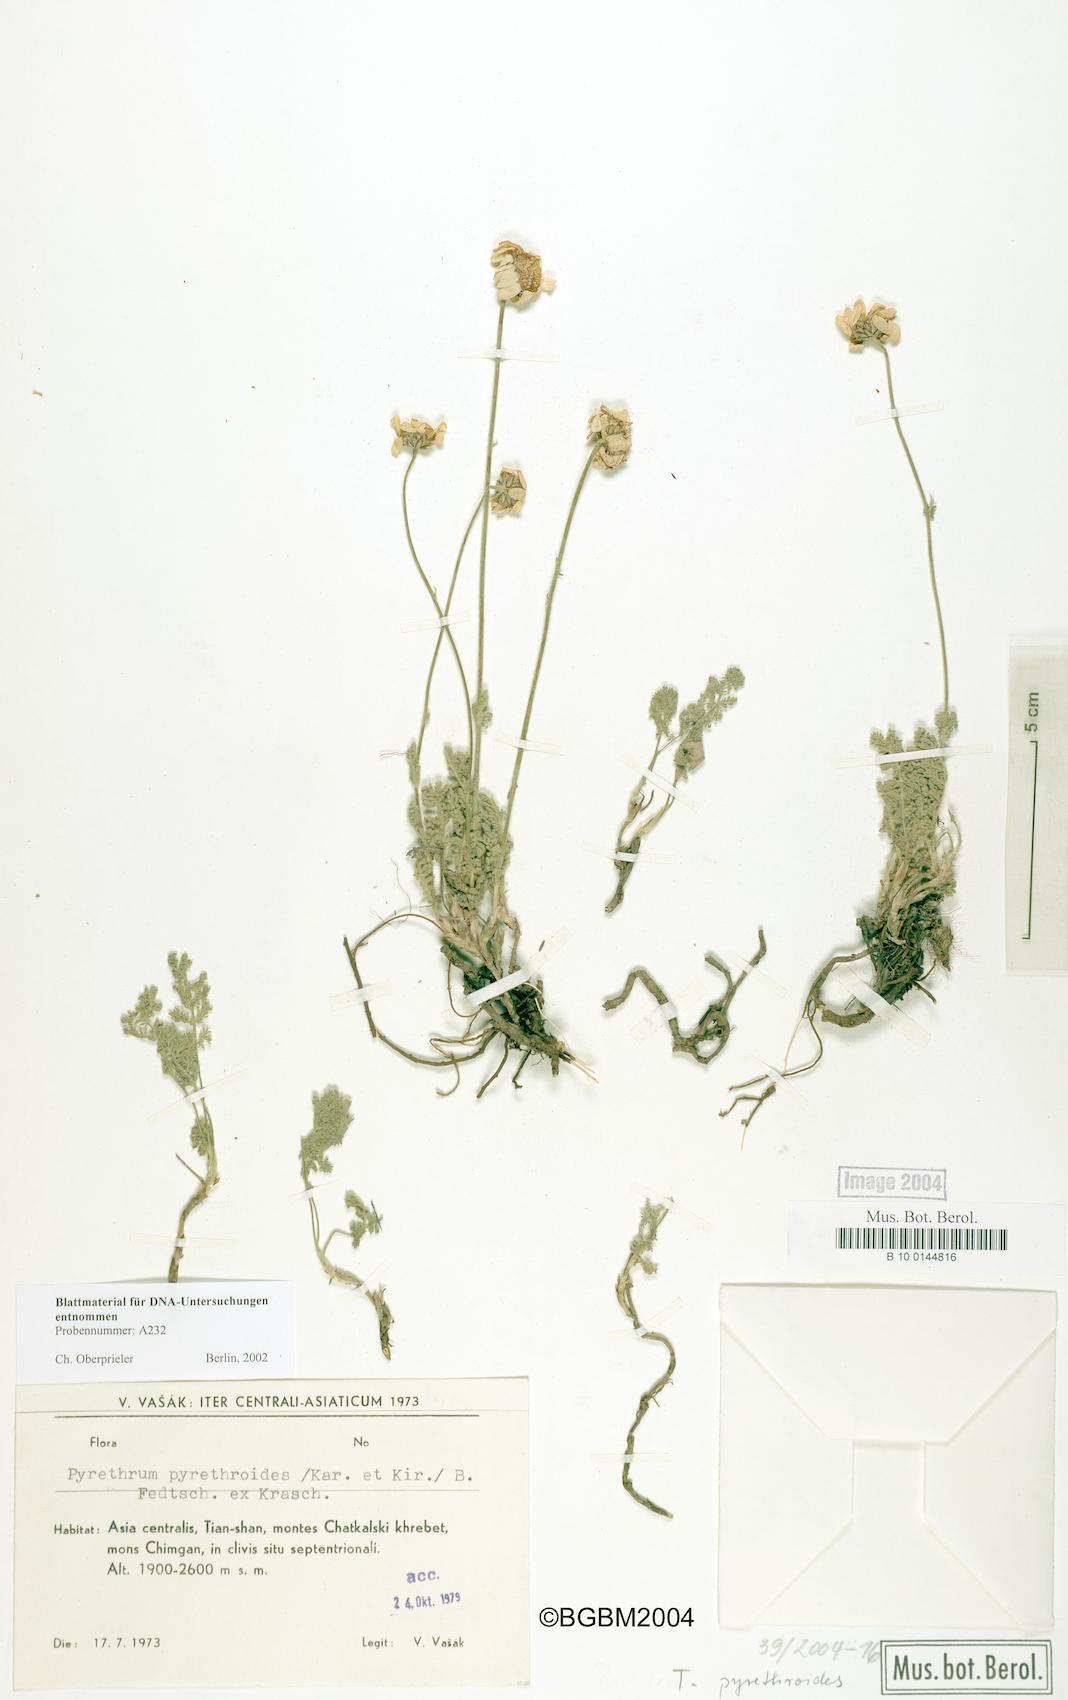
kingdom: Plantae
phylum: Tracheophyta
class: Magnoliopsida
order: Asterales
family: Asteraceae
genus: Richteria
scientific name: Richteria pyrethroides
